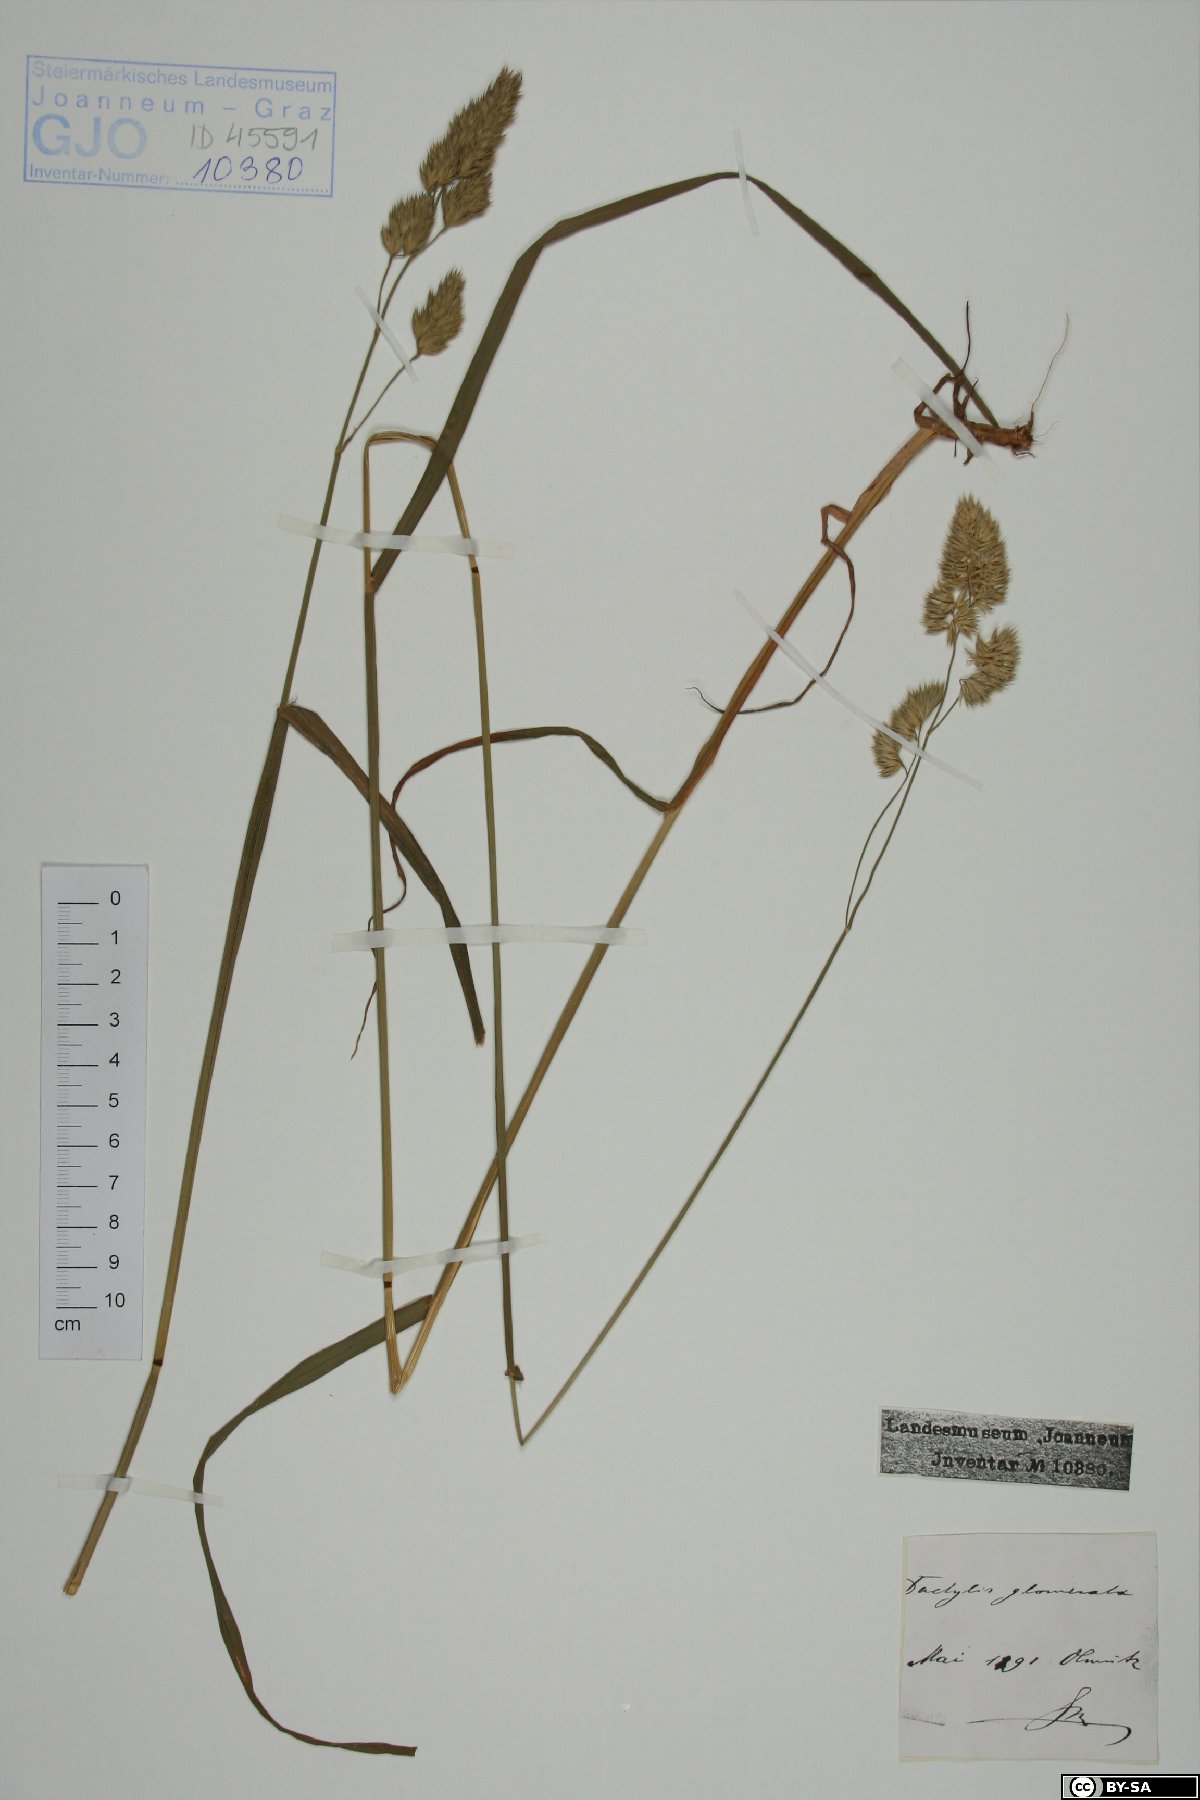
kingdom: Plantae
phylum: Tracheophyta
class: Liliopsida
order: Poales
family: Poaceae
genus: Dactylis
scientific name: Dactylis glomerata
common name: Orchardgrass
